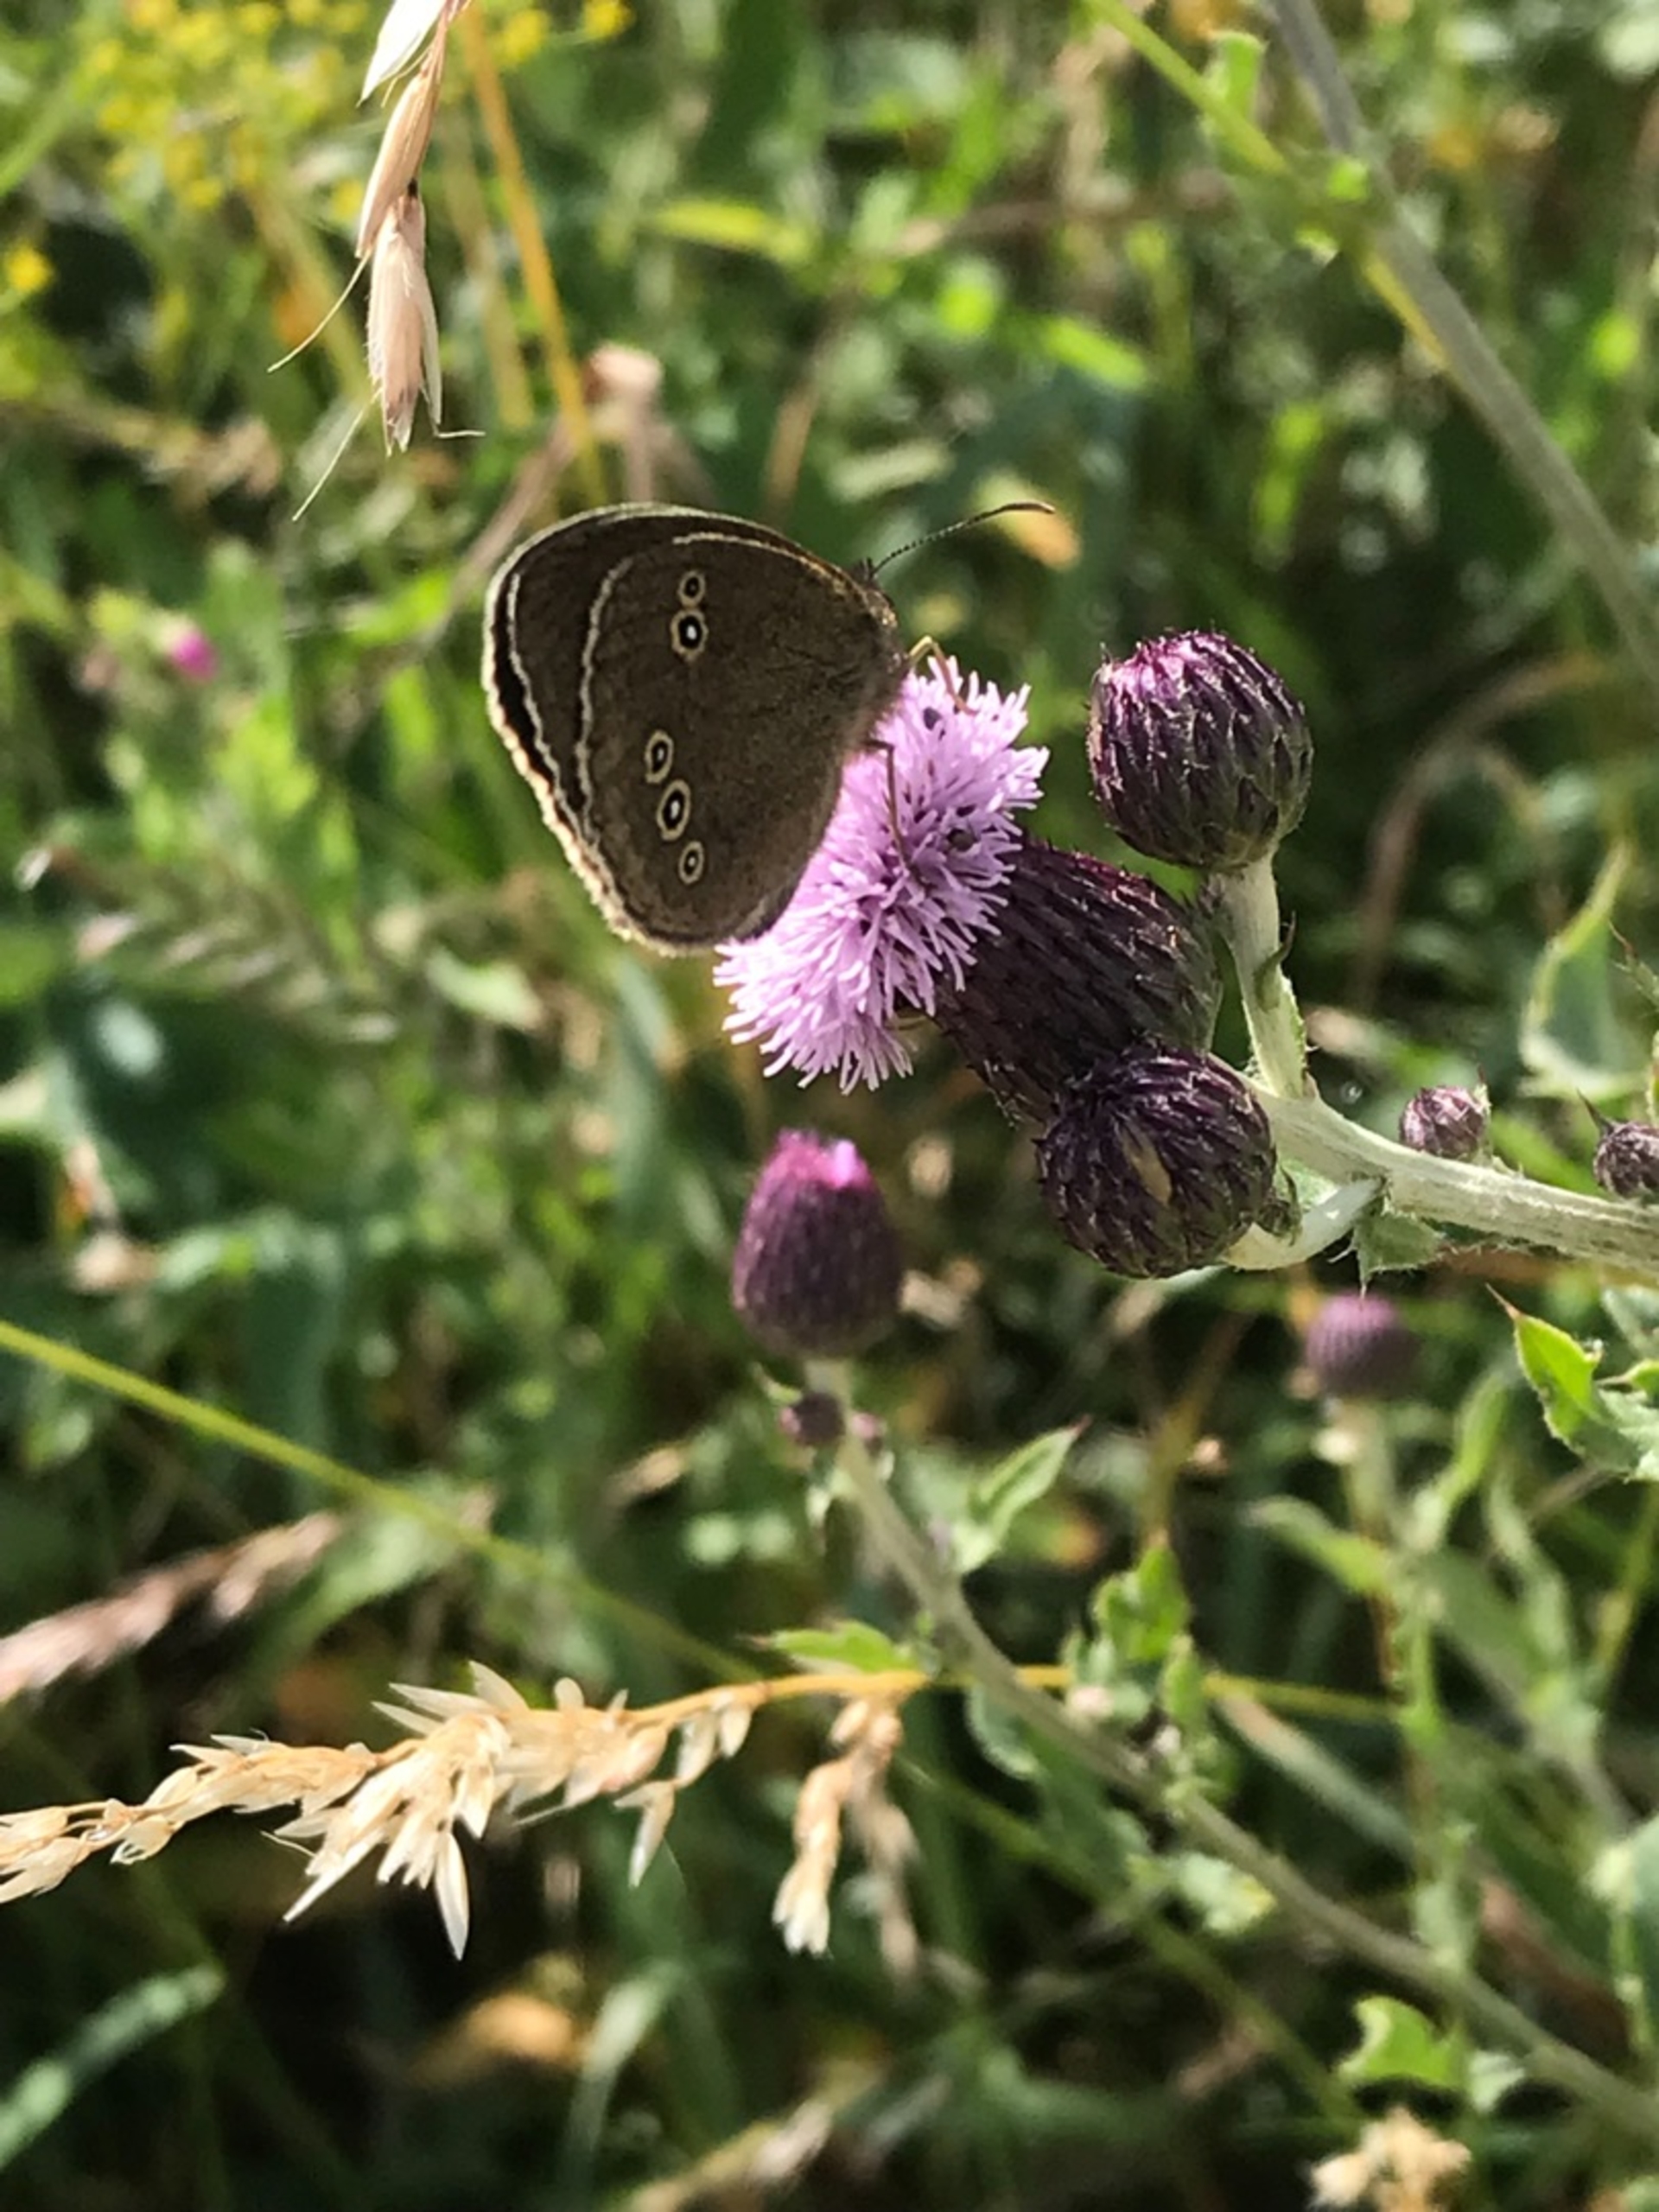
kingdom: Animalia
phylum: Arthropoda
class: Insecta
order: Lepidoptera
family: Nymphalidae
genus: Aphantopus
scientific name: Aphantopus hyperantus
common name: Engrandøje
